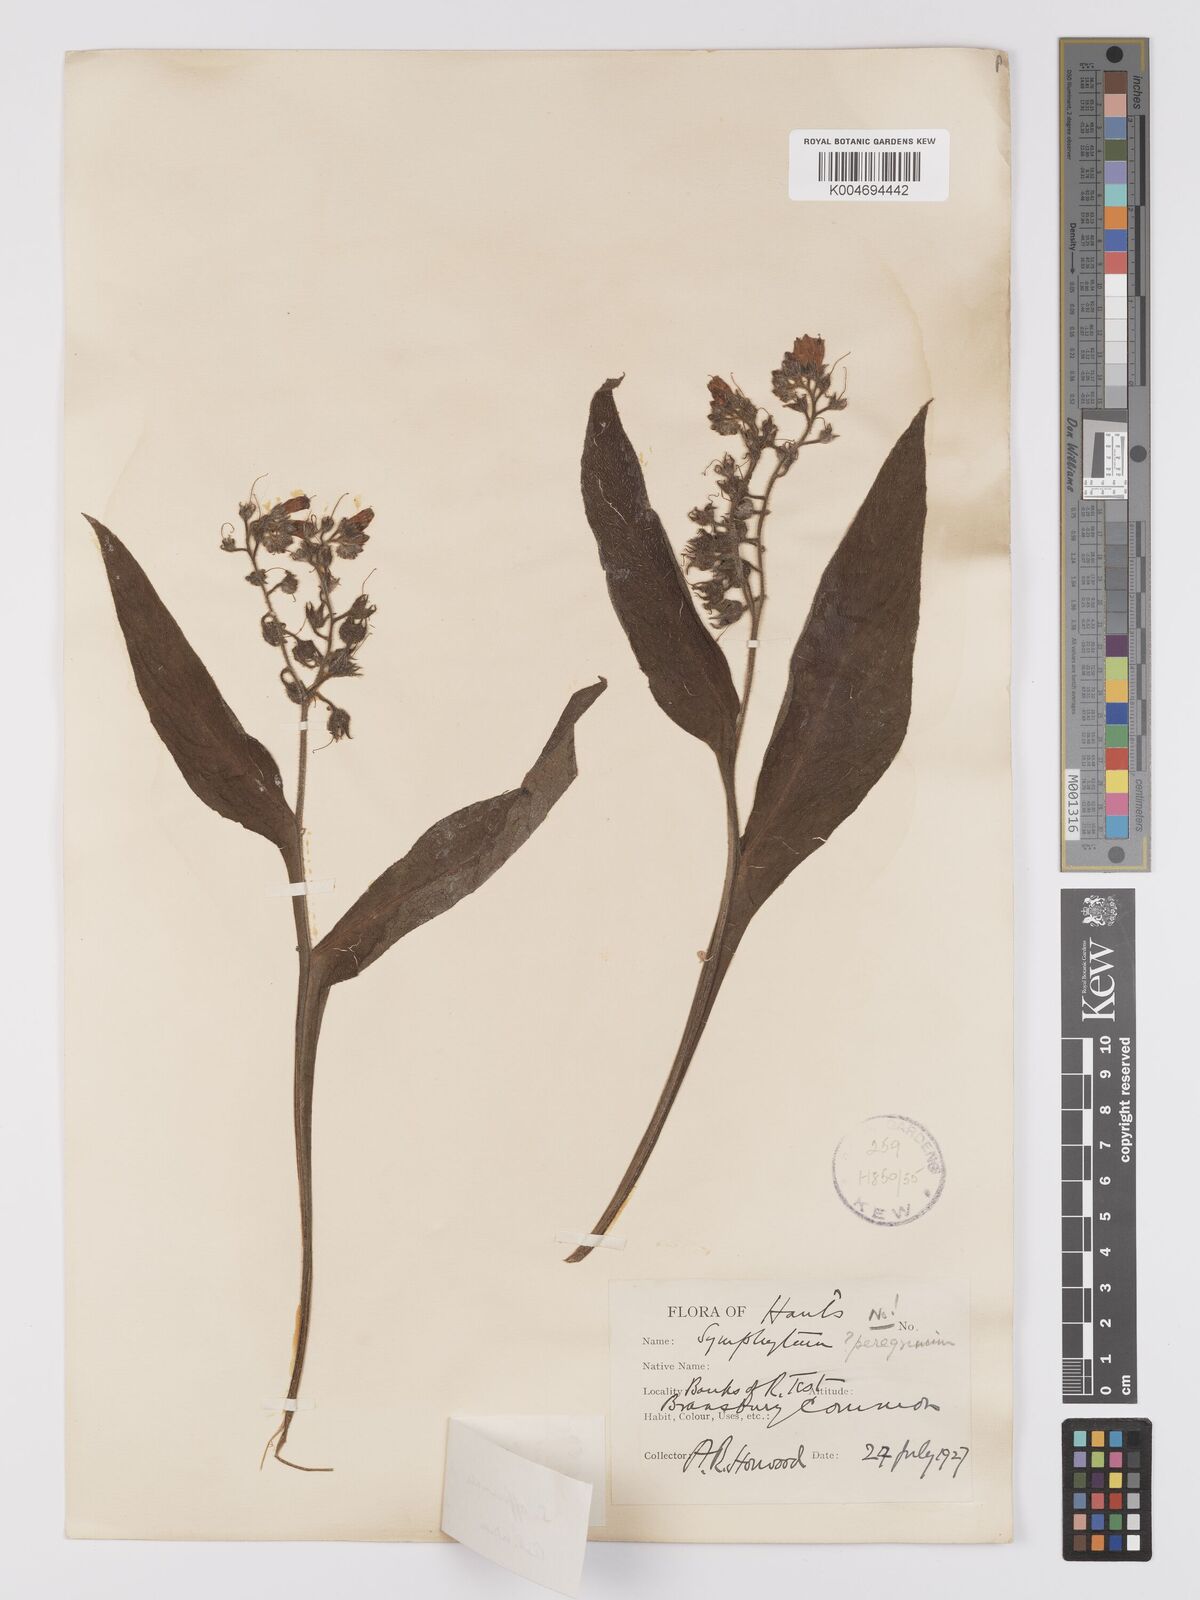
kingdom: Plantae
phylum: Tracheophyta
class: Magnoliopsida
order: Boraginales
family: Boraginaceae
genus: Symphytum
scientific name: Symphytum officinale
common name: Common comfrey
